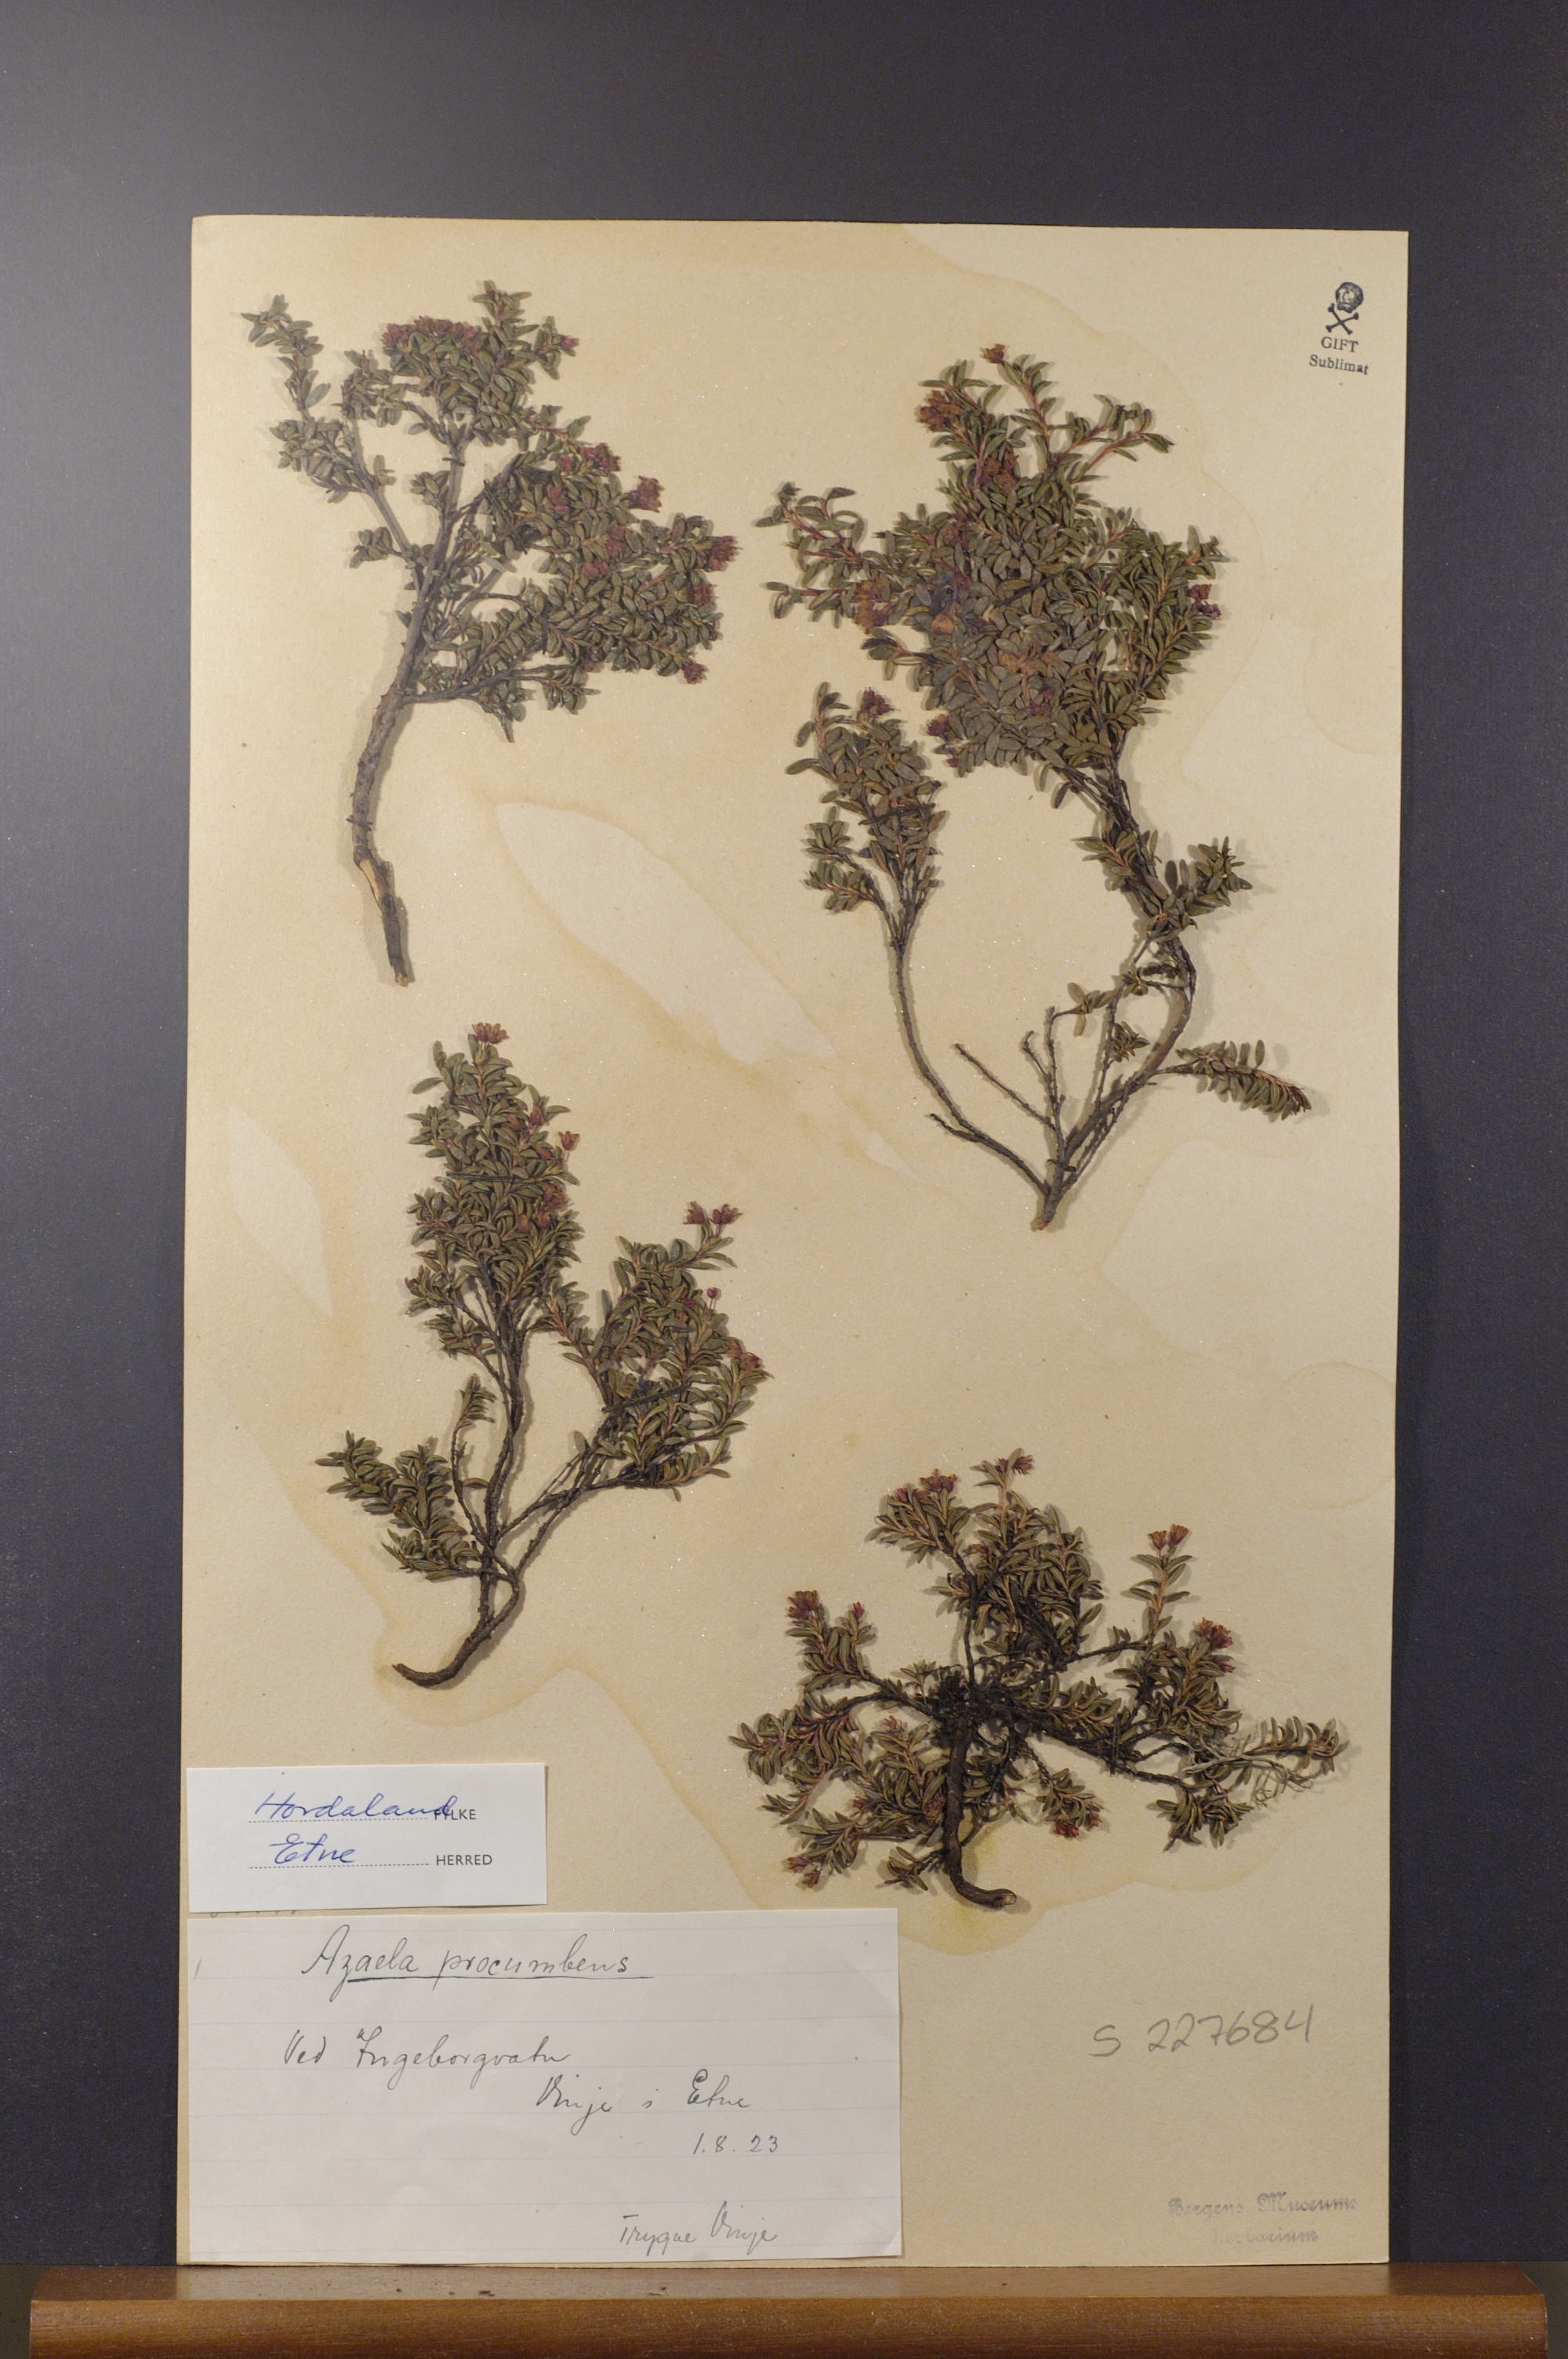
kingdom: Plantae
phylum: Tracheophyta
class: Magnoliopsida
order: Ericales
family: Ericaceae
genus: Kalmia
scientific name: Kalmia procumbens
